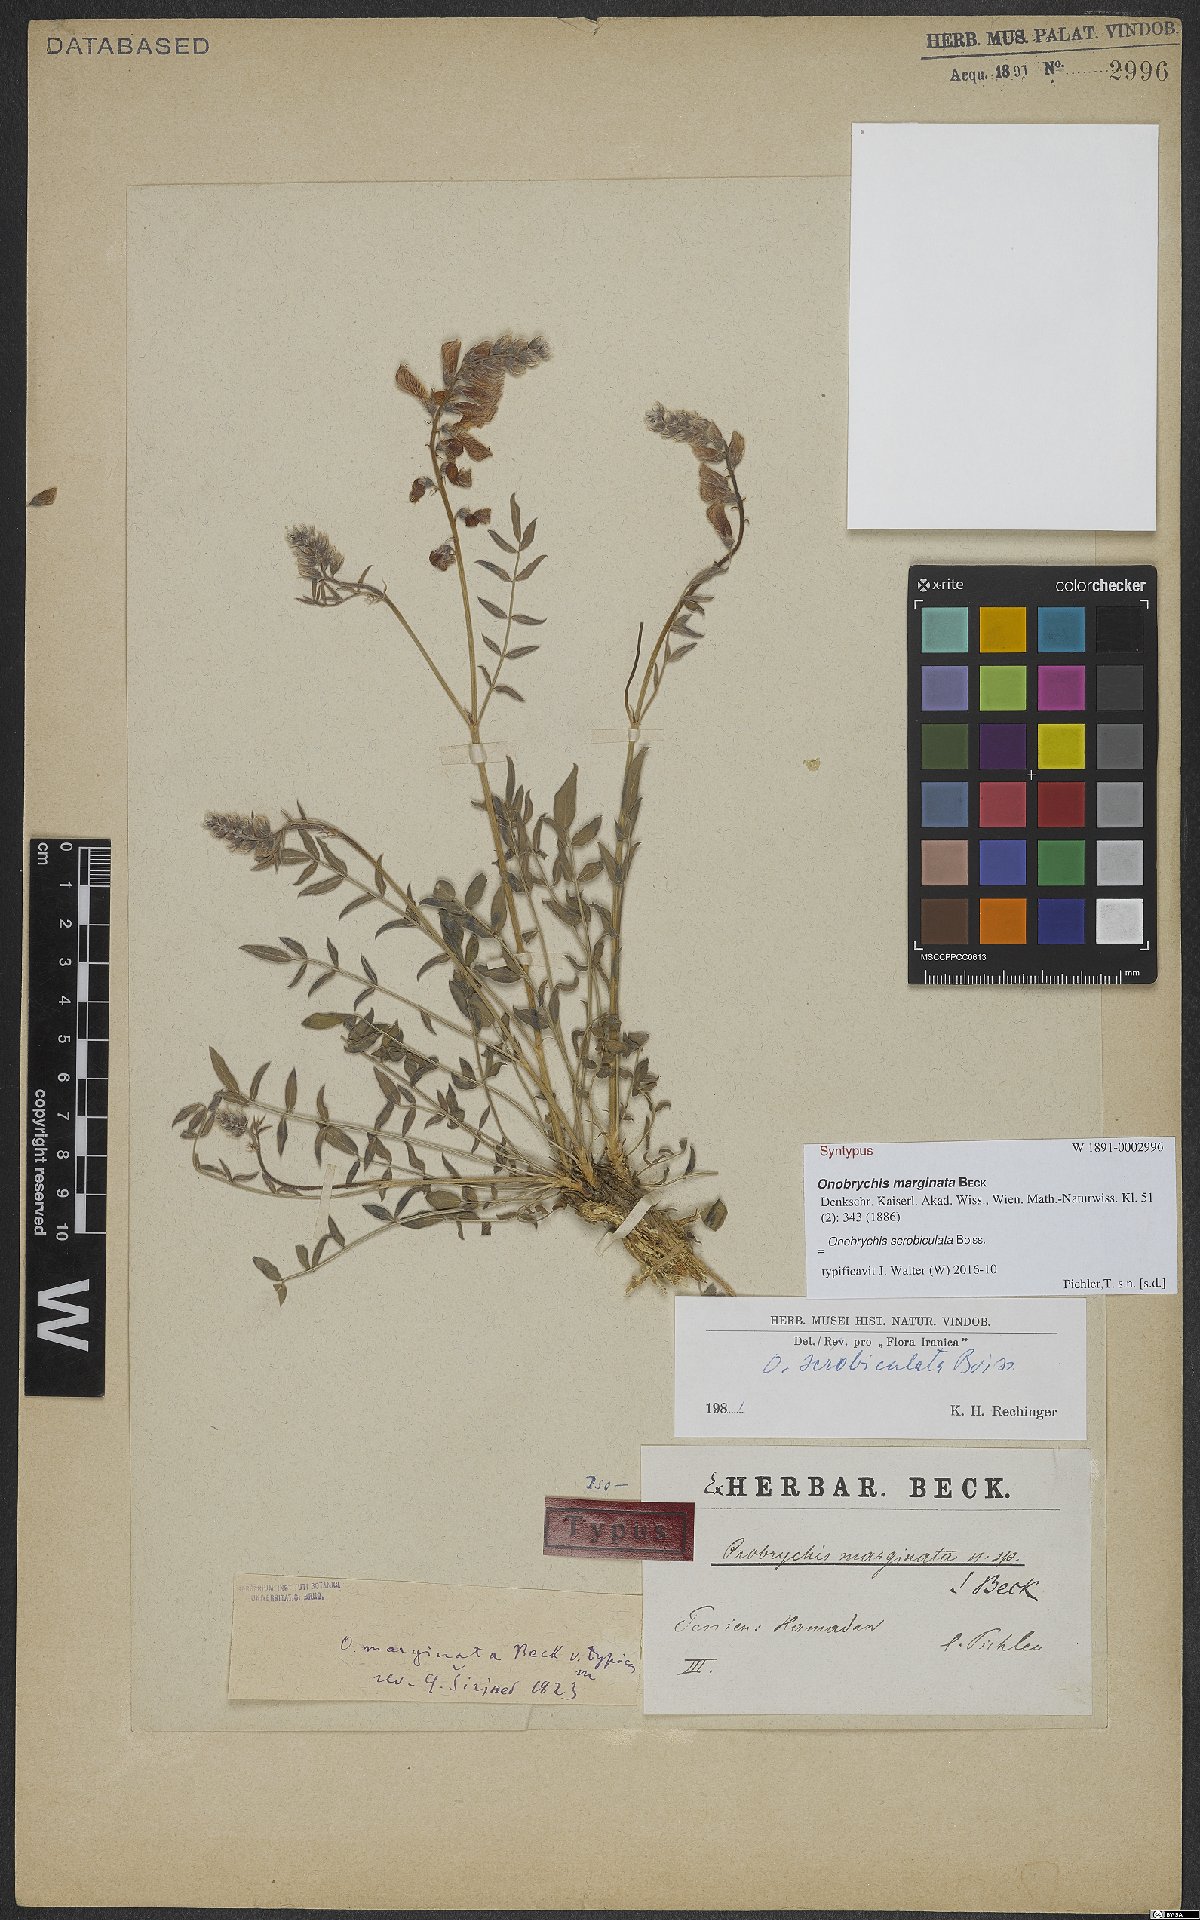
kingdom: Plantae
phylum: Tracheophyta
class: Magnoliopsida
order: Fabales
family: Fabaceae
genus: Onobrychis
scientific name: Onobrychis scrobiculata
